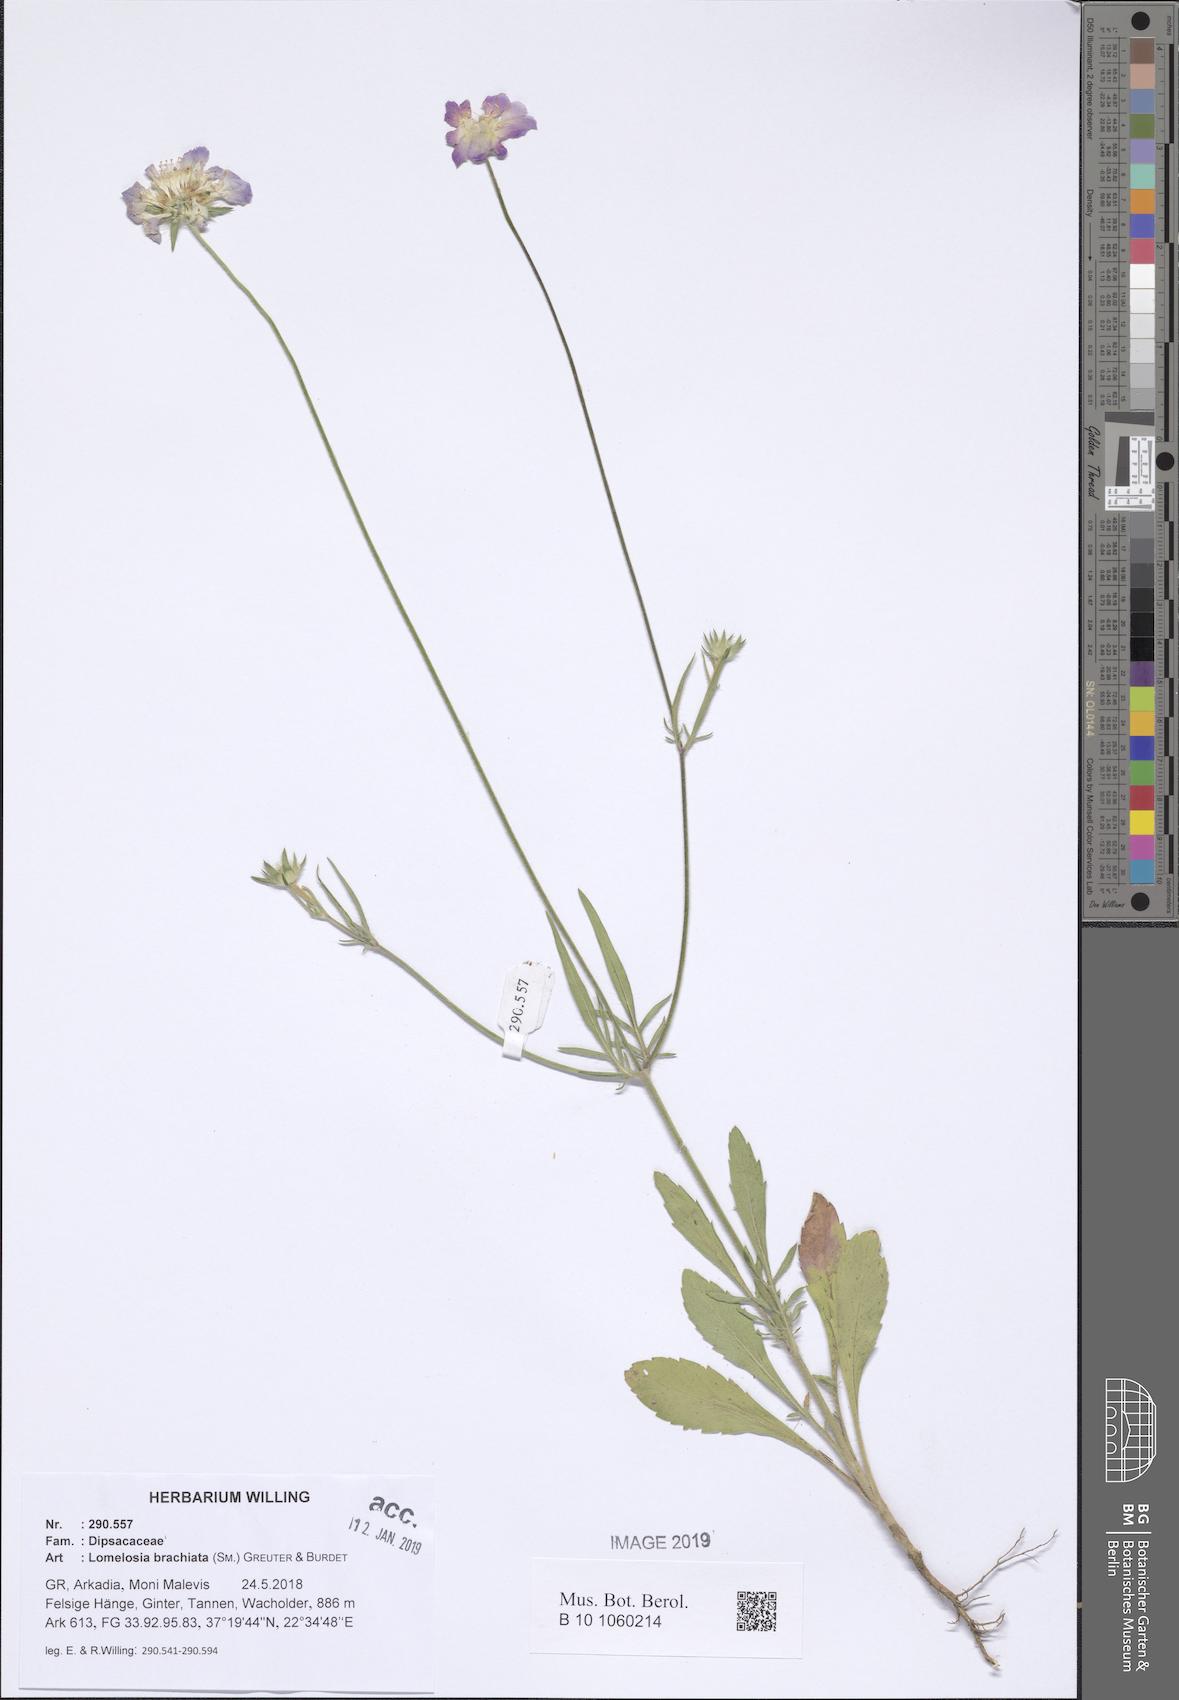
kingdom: Plantae
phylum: Tracheophyta
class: Magnoliopsida
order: Dipsacales
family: Caprifoliaceae
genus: Lomelosia
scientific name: Lomelosia brachiata
